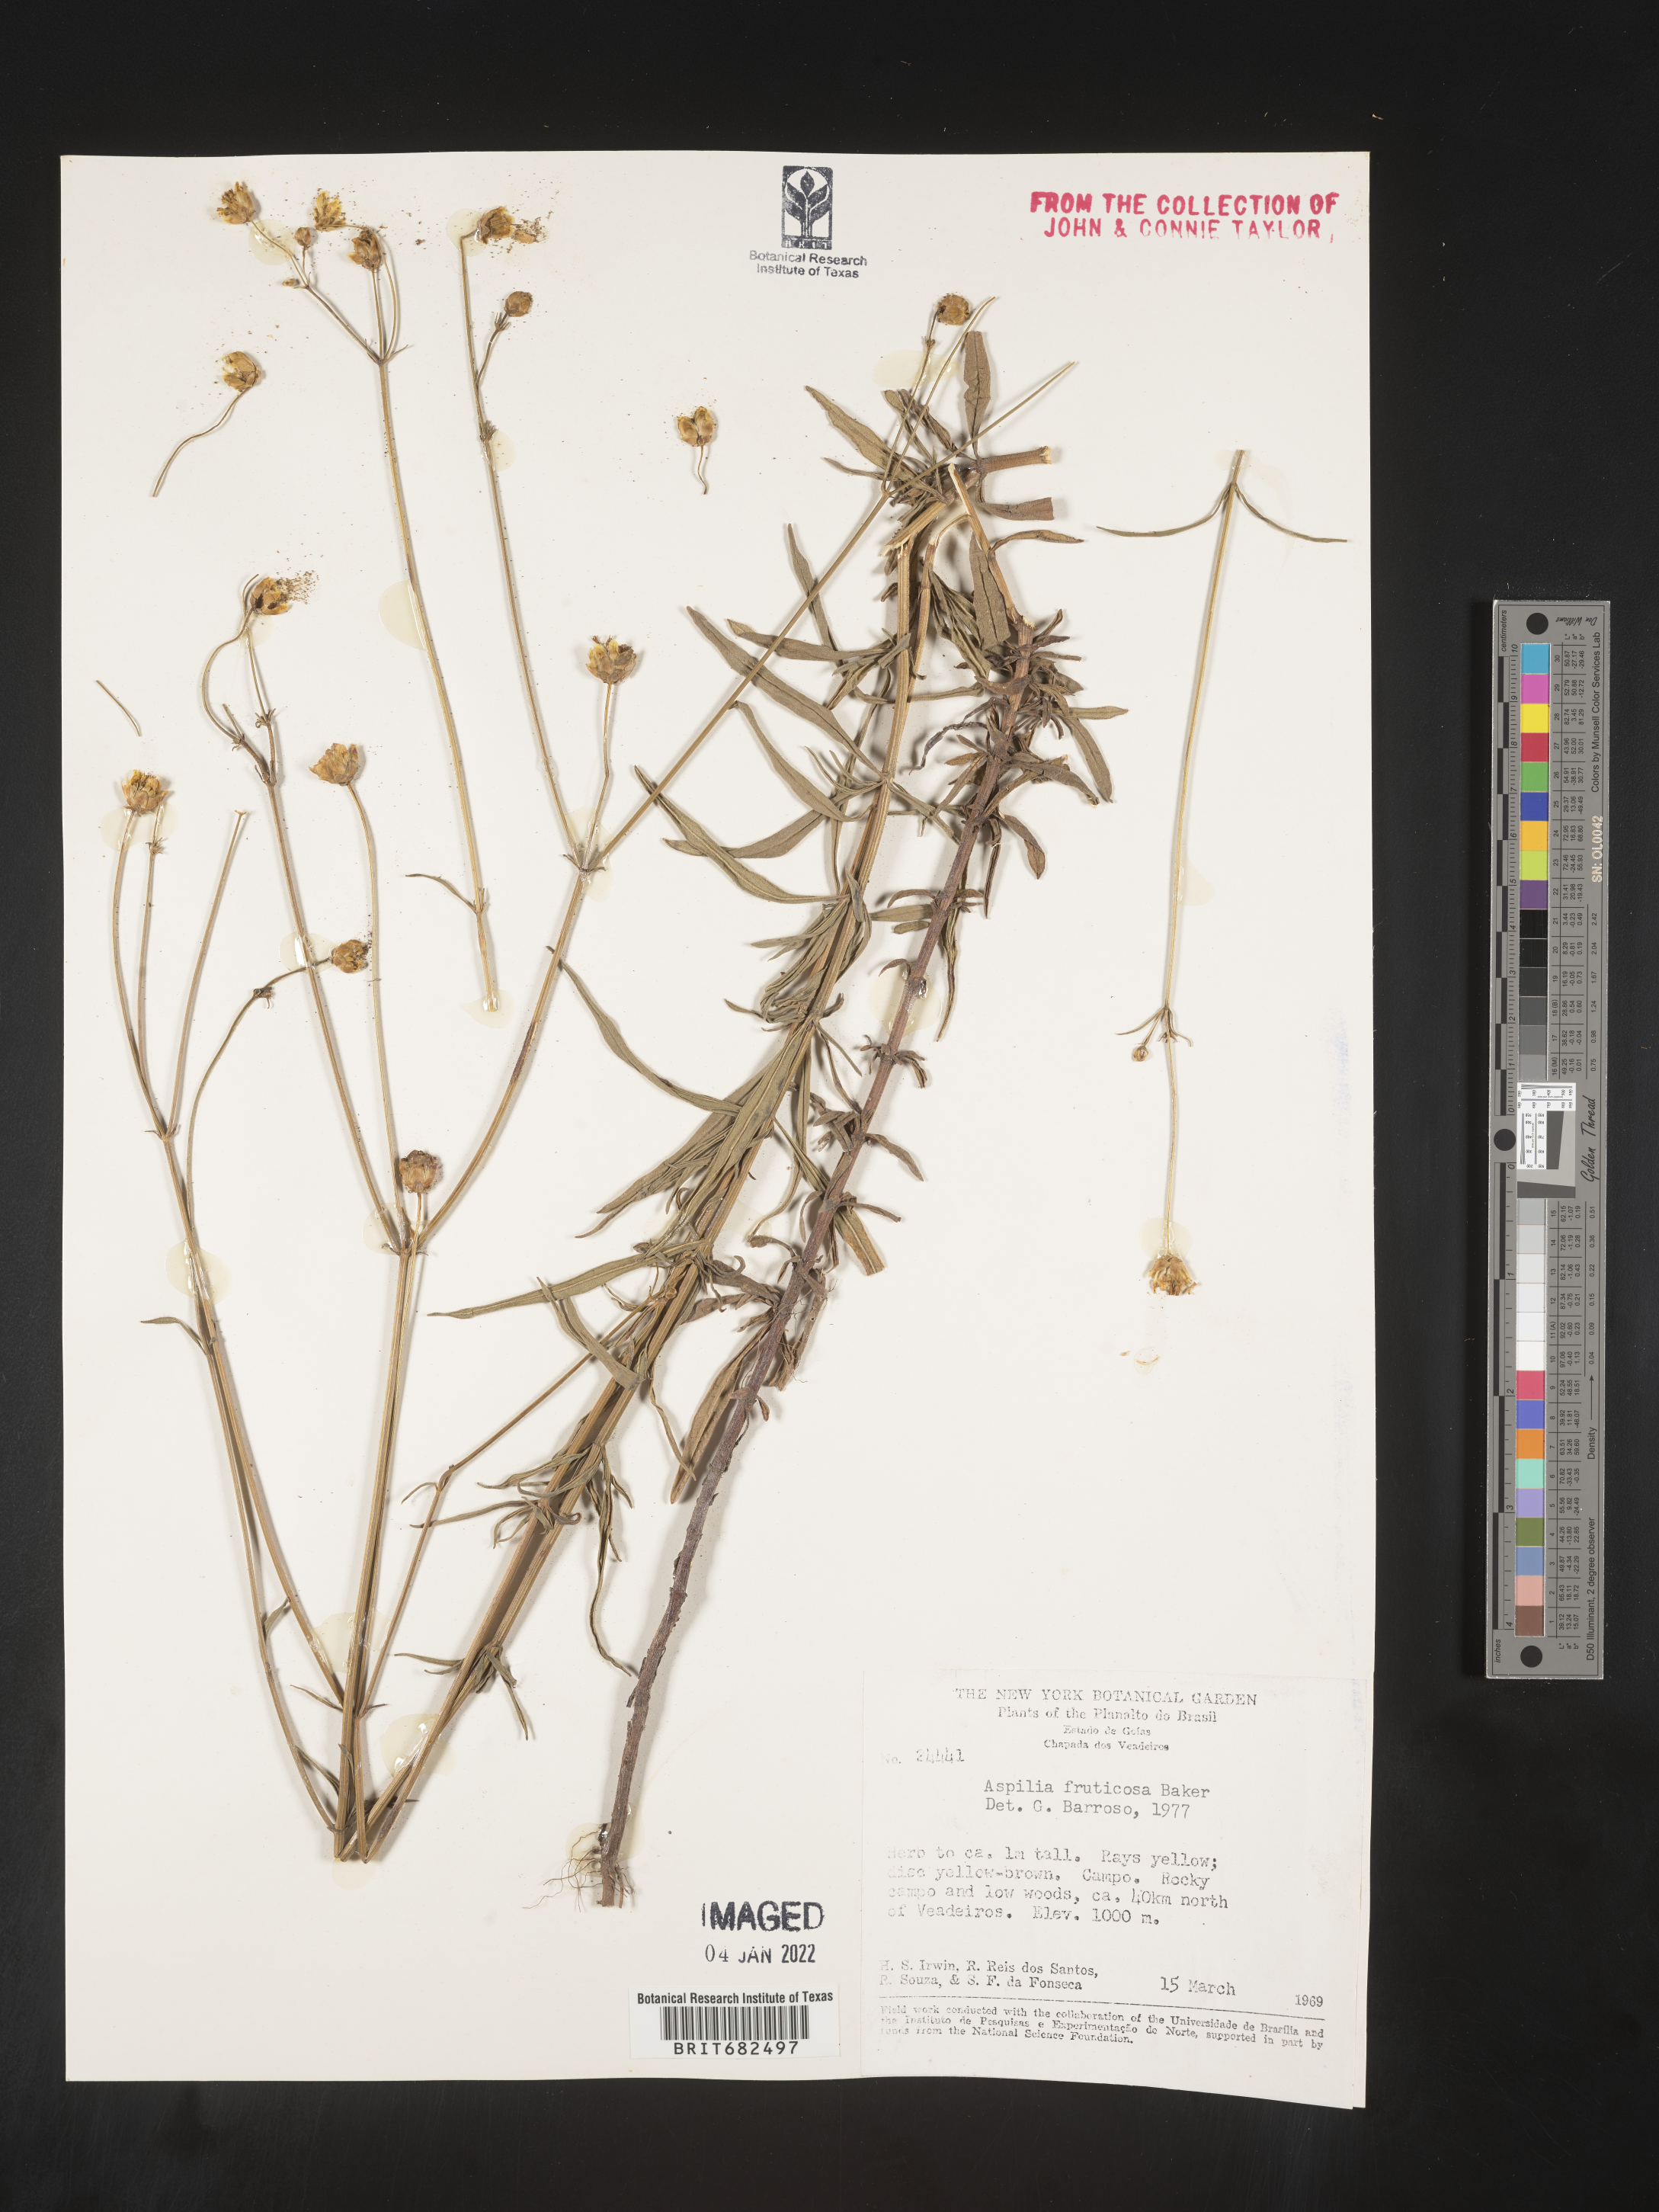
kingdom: Plantae
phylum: Tracheophyta
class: Magnoliopsida
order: Asterales
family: Asteraceae
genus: Aspilia
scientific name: Aspilia
